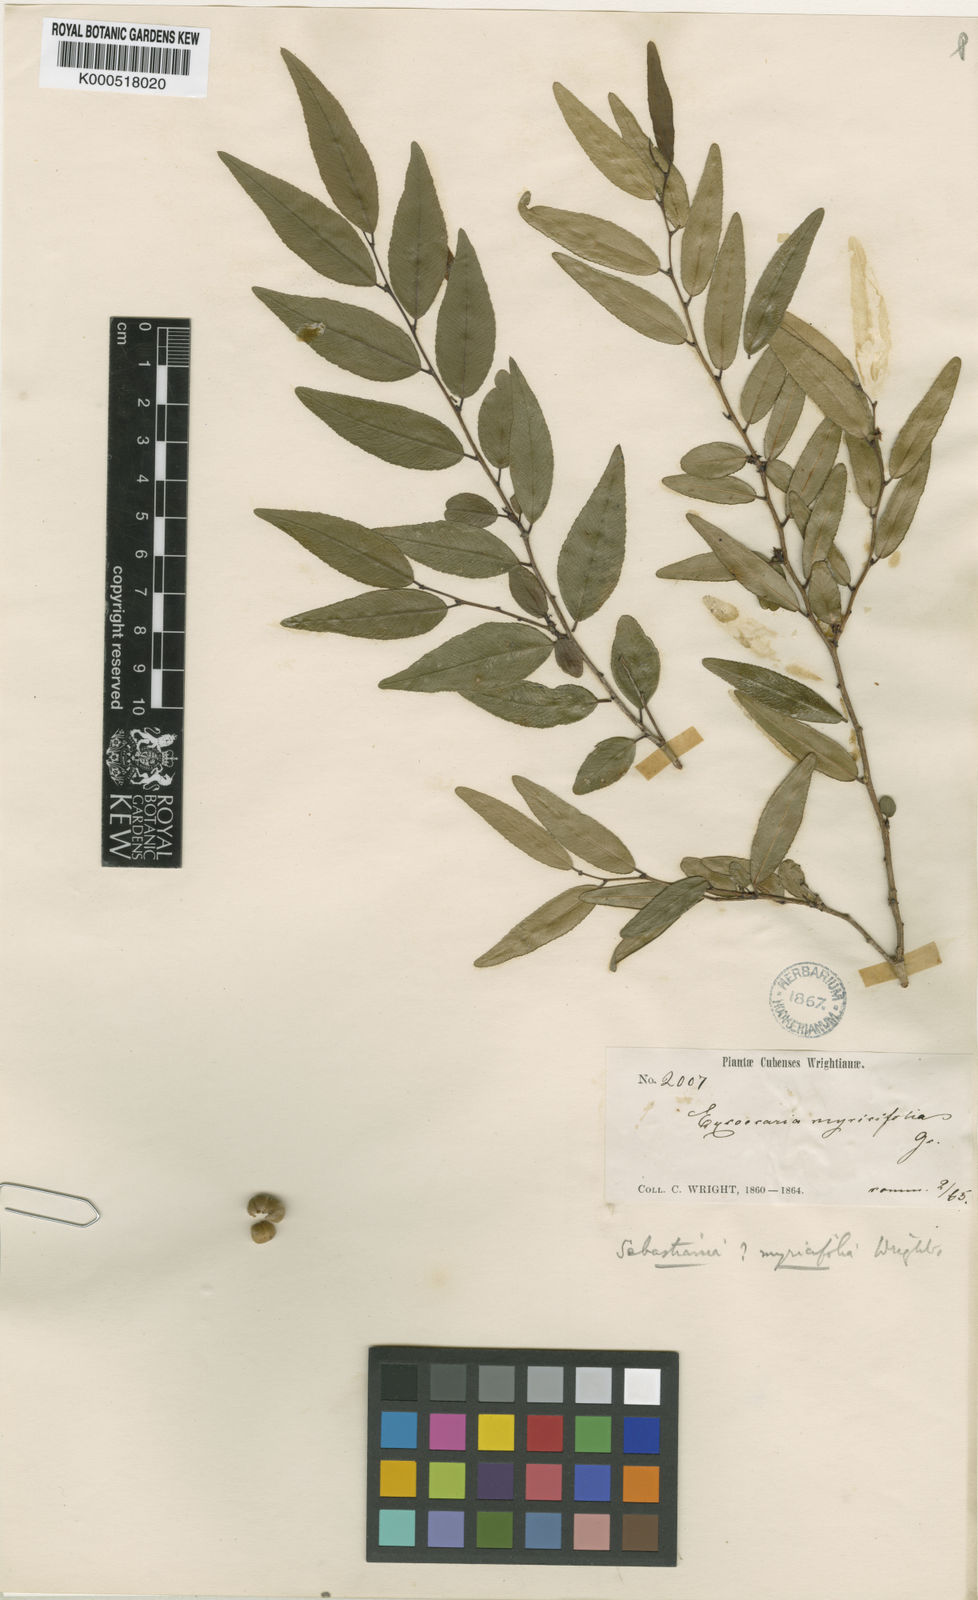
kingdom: Plantae
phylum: Tracheophyta
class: Magnoliopsida
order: Malpighiales
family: Euphorbiaceae
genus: Bonania
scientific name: Bonania myricifolia
